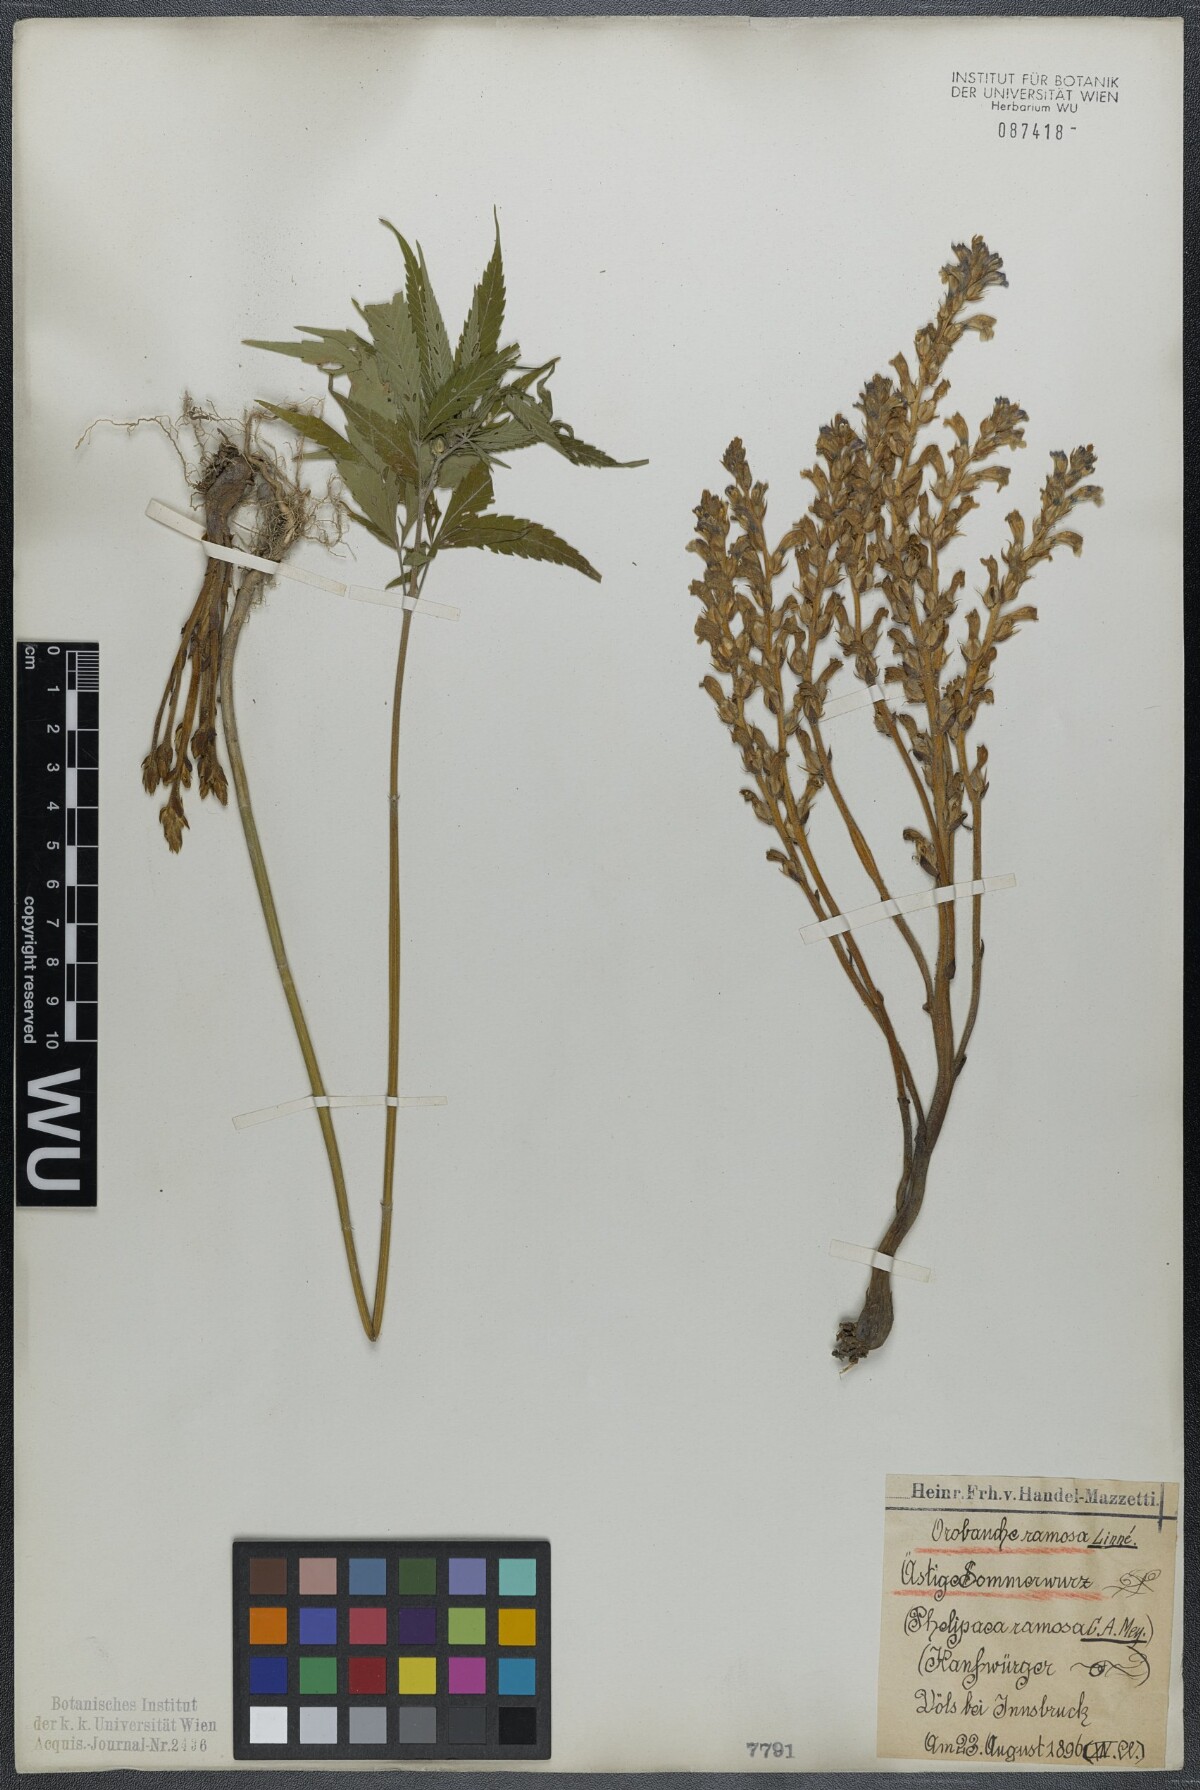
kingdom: Plantae
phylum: Tracheophyta
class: Magnoliopsida
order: Lamiales
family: Orobanchaceae
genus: Phelipanche
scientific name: Phelipanche ramosa
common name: Branched broomrape
